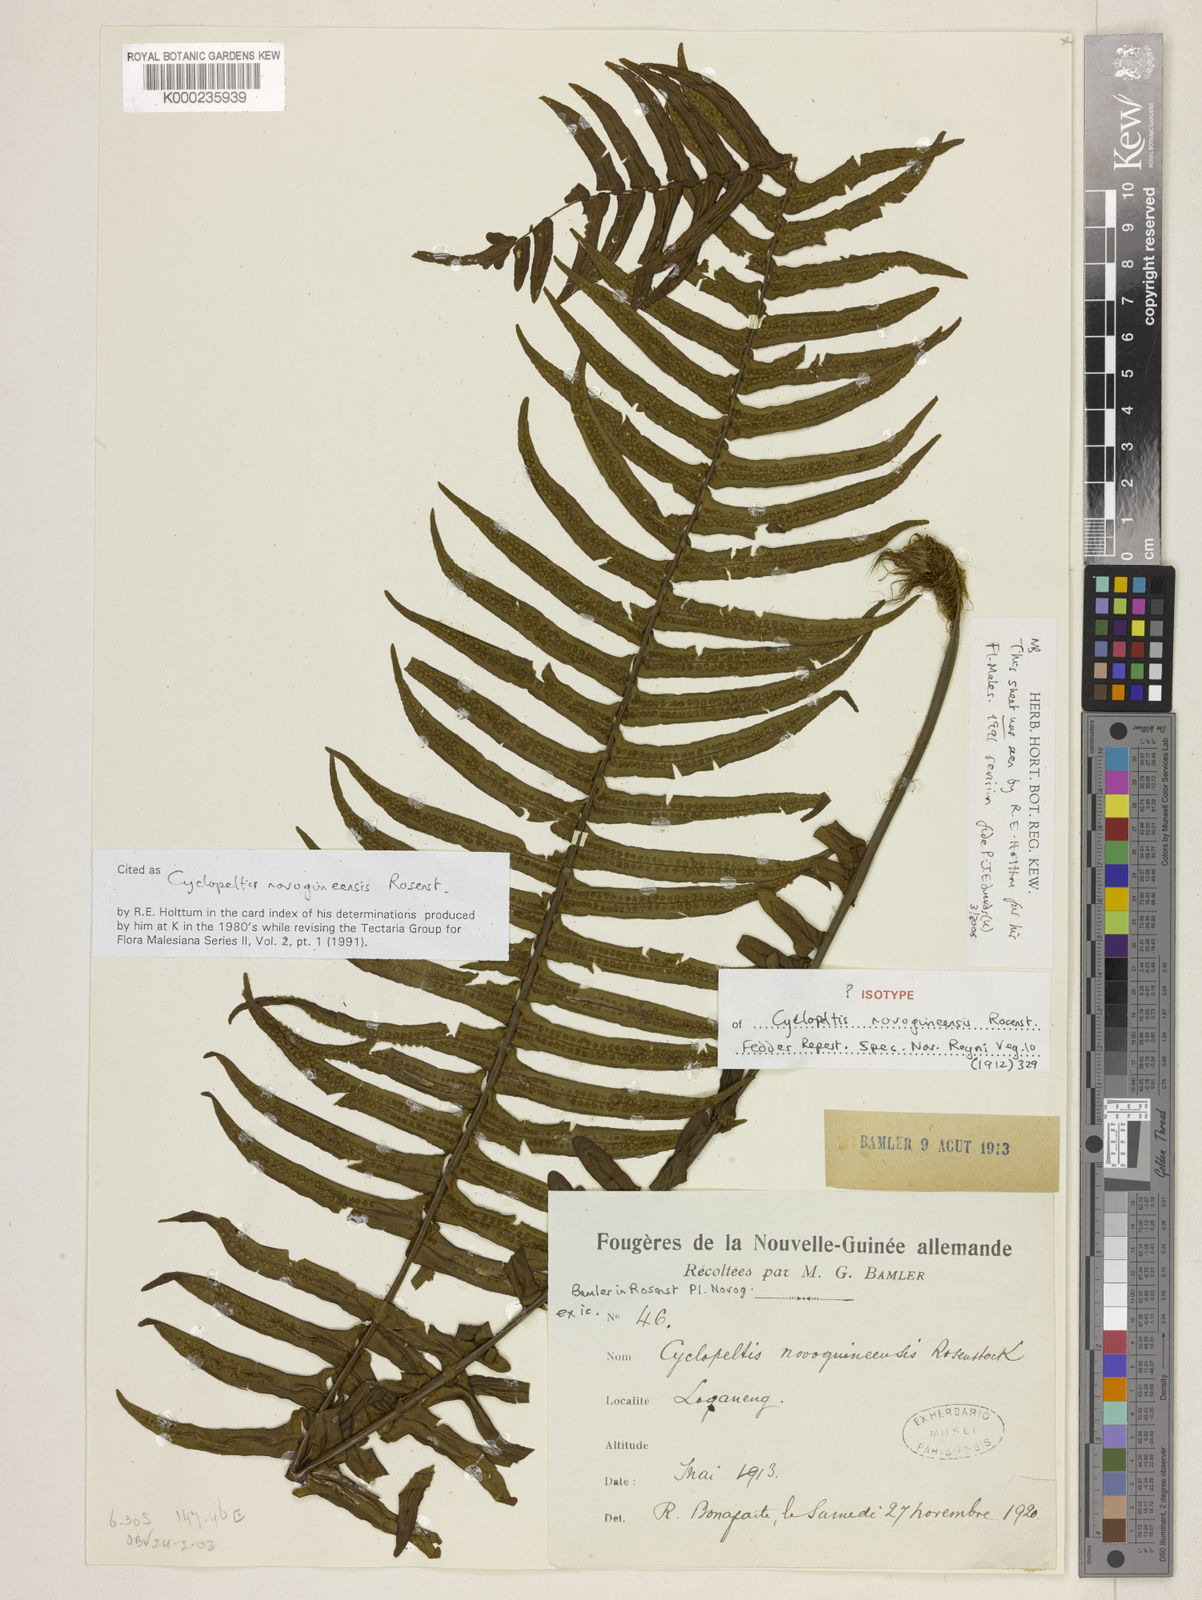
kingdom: Plantae
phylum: Tracheophyta
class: Polypodiopsida
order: Polypodiales
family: Lomariopsidaceae
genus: Cyclopeltis
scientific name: Cyclopeltis novoguineensis
